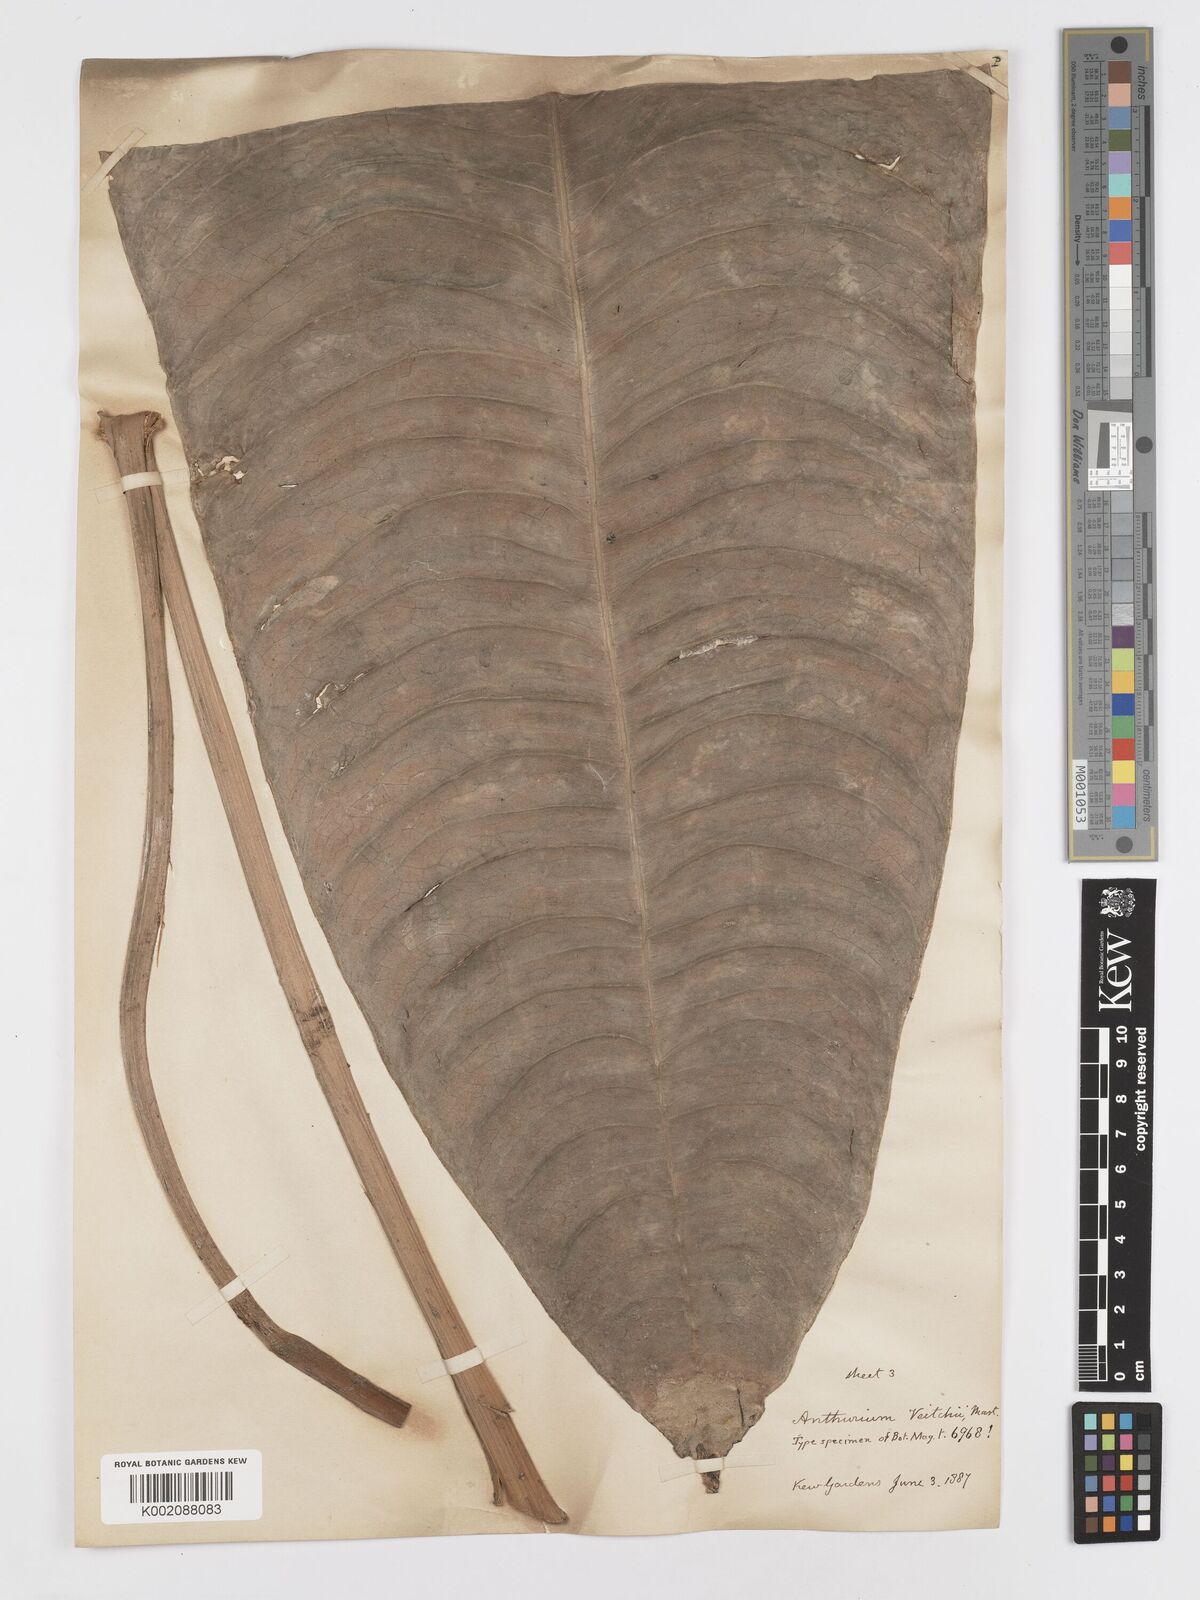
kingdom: Plantae
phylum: Tracheophyta
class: Liliopsida
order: Alismatales
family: Araceae
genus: Anthurium
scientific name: Anthurium veitchii
